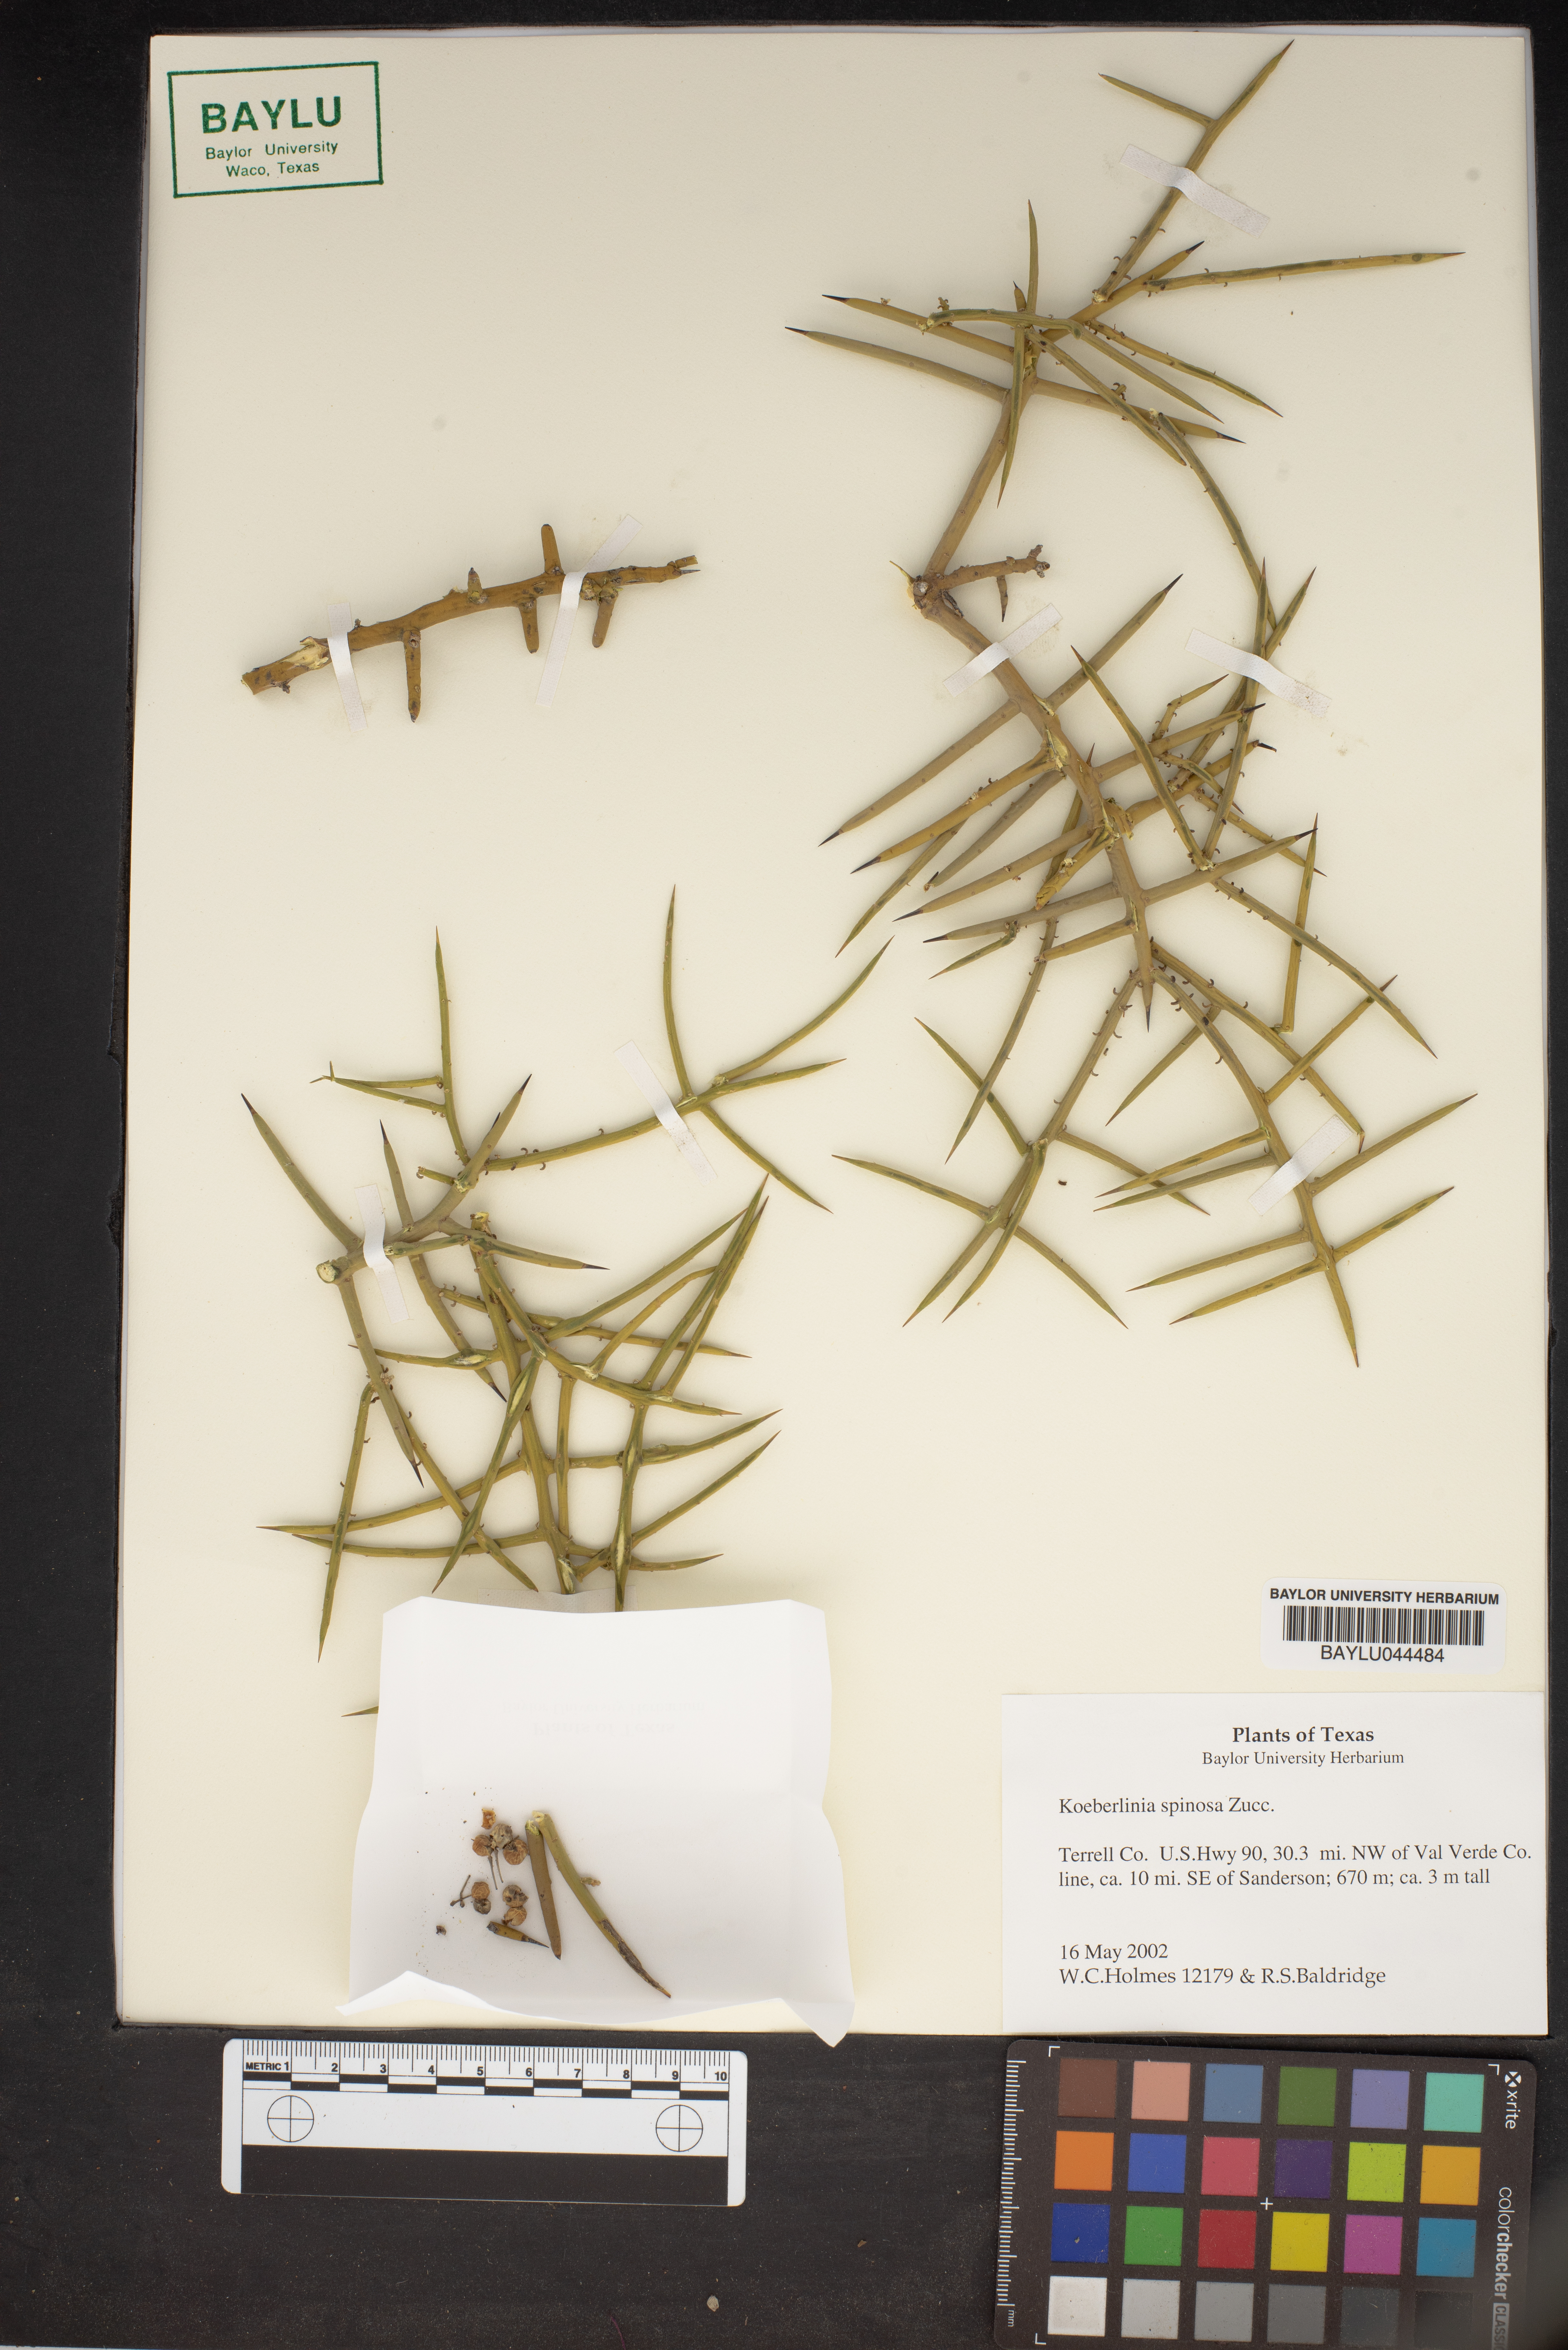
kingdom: Plantae
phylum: Tracheophyta
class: Magnoliopsida
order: Brassicales
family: Koeberliniaceae
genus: Koeberlinia
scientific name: Koeberlinia spinosa
